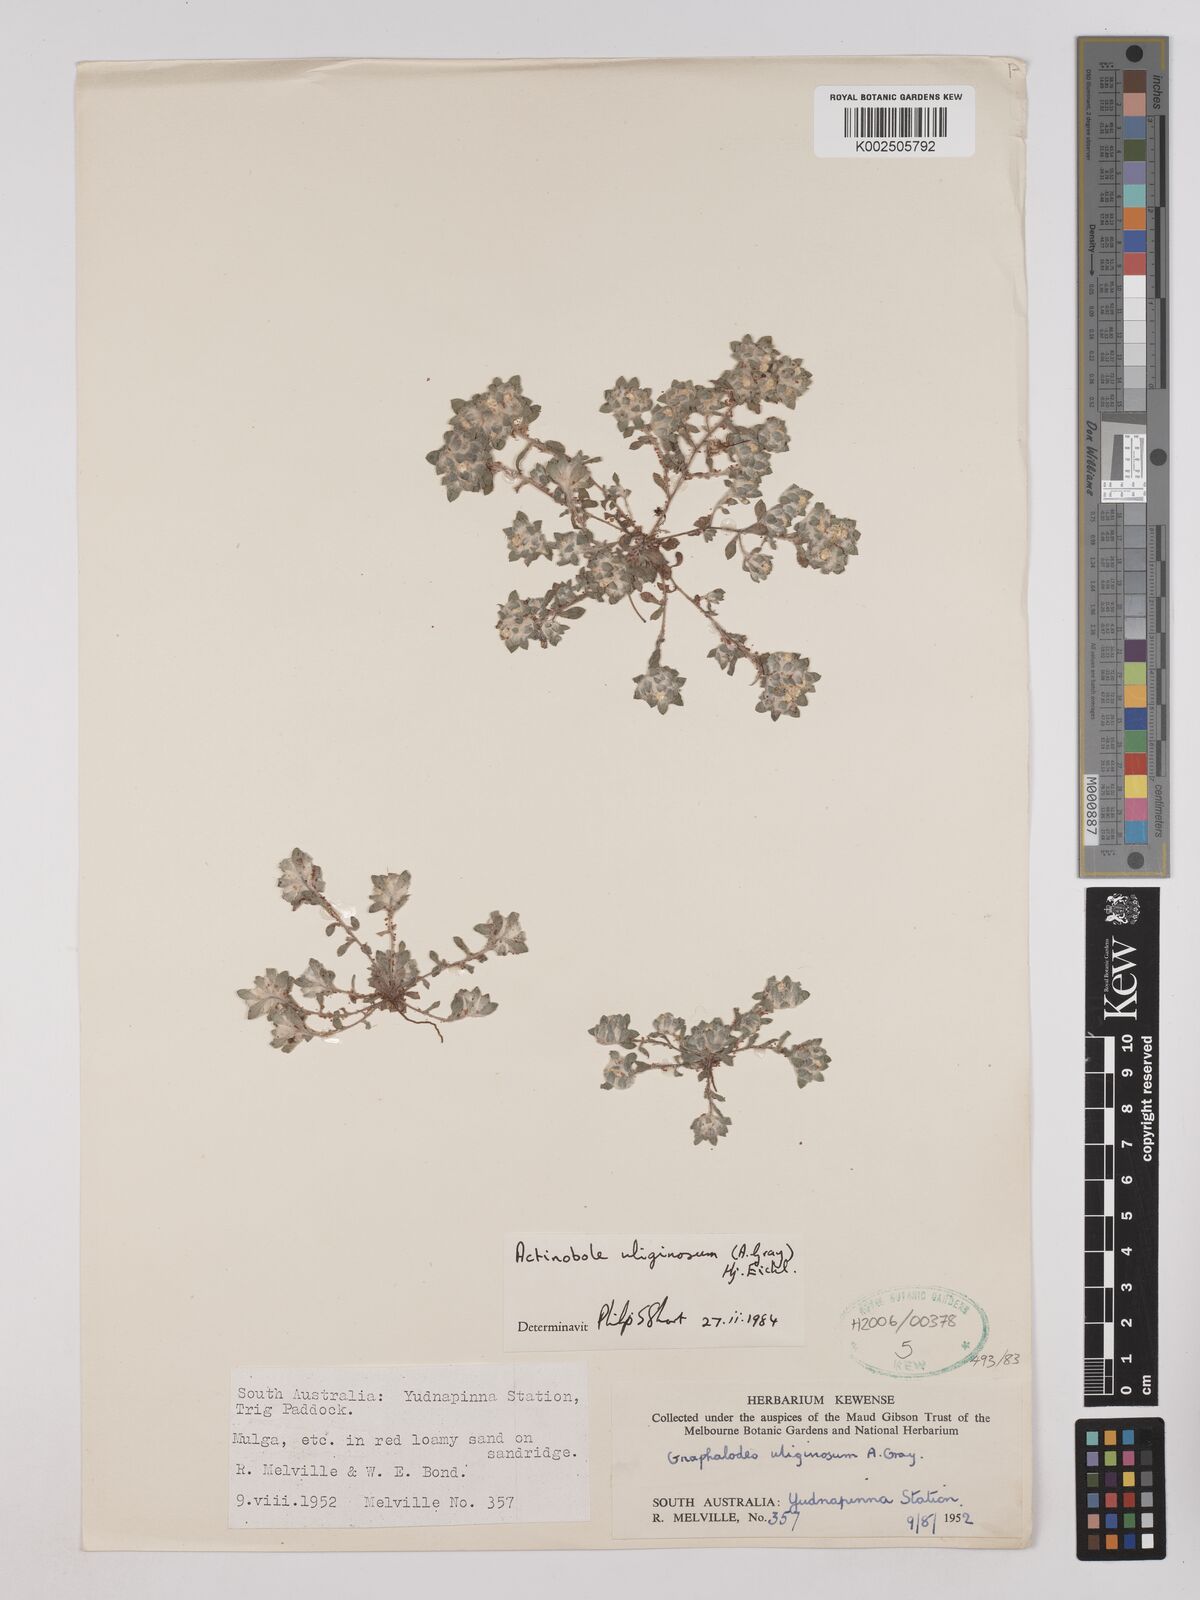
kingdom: Plantae
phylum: Tracheophyta
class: Magnoliopsida
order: Asterales
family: Asteraceae
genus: Actinobole
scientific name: Actinobole uliginosum
